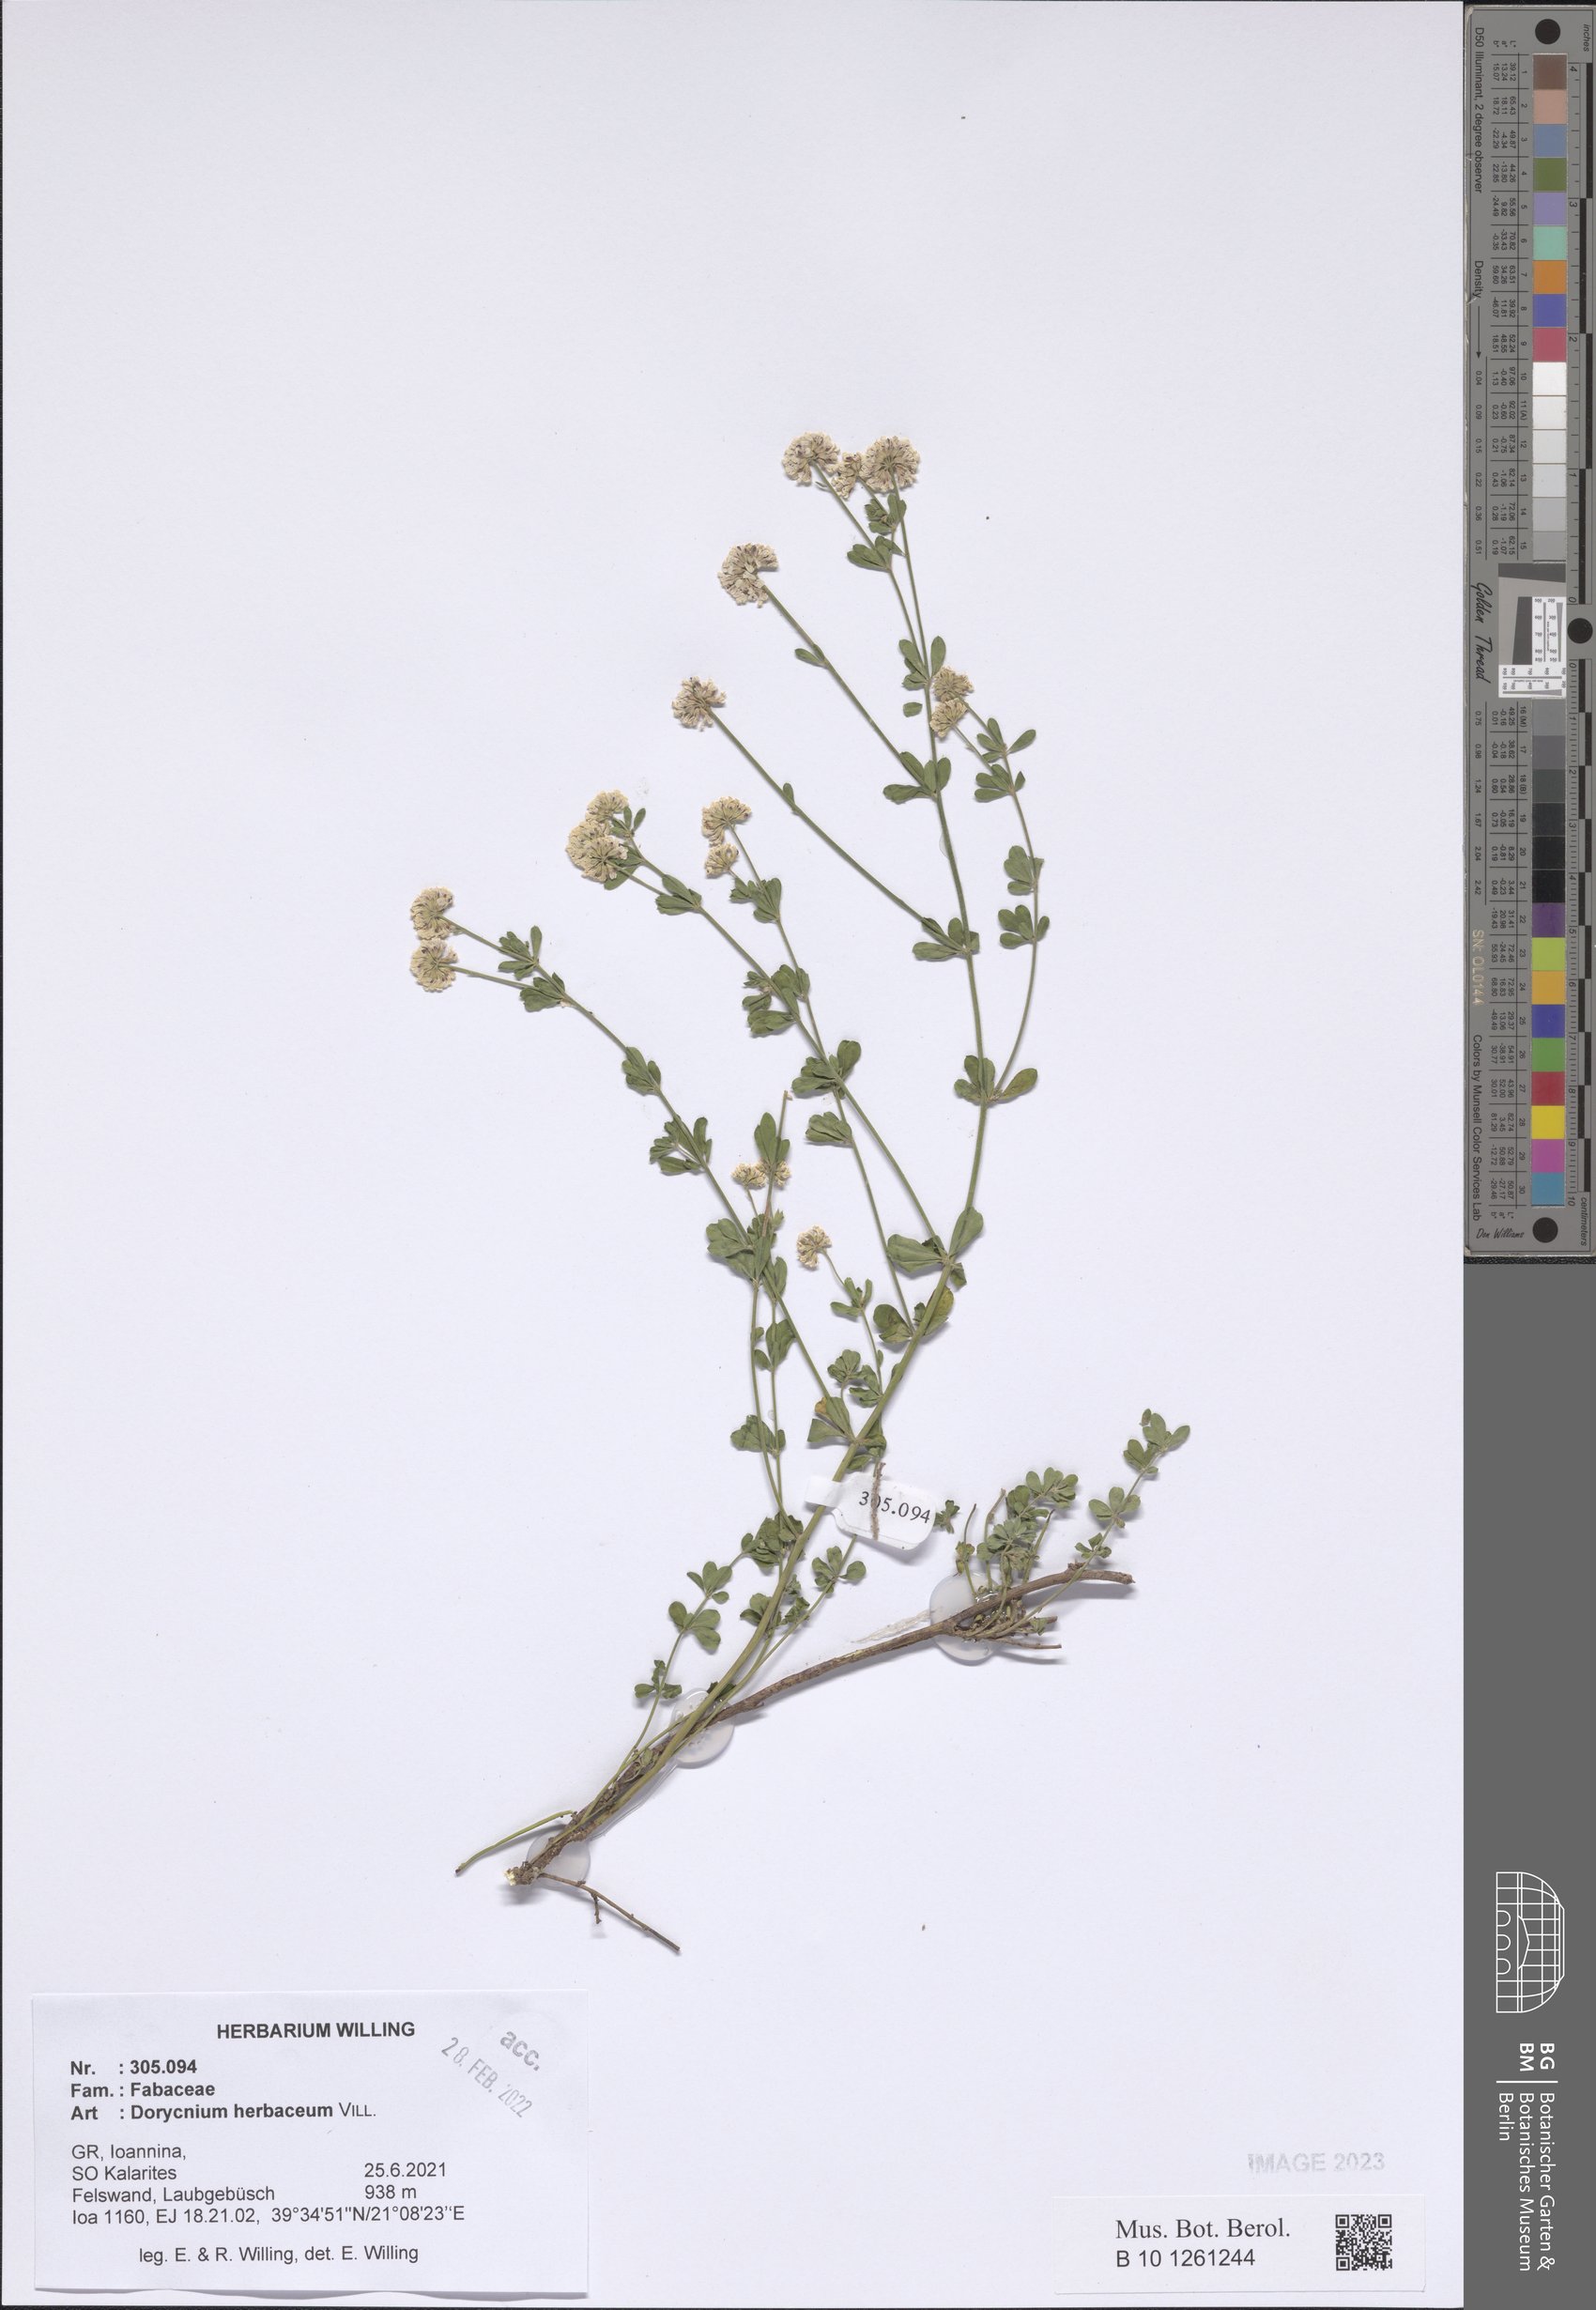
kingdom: Plantae
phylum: Tracheophyta
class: Magnoliopsida
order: Fabales
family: Fabaceae
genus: Lotus
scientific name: Lotus herbaceus
